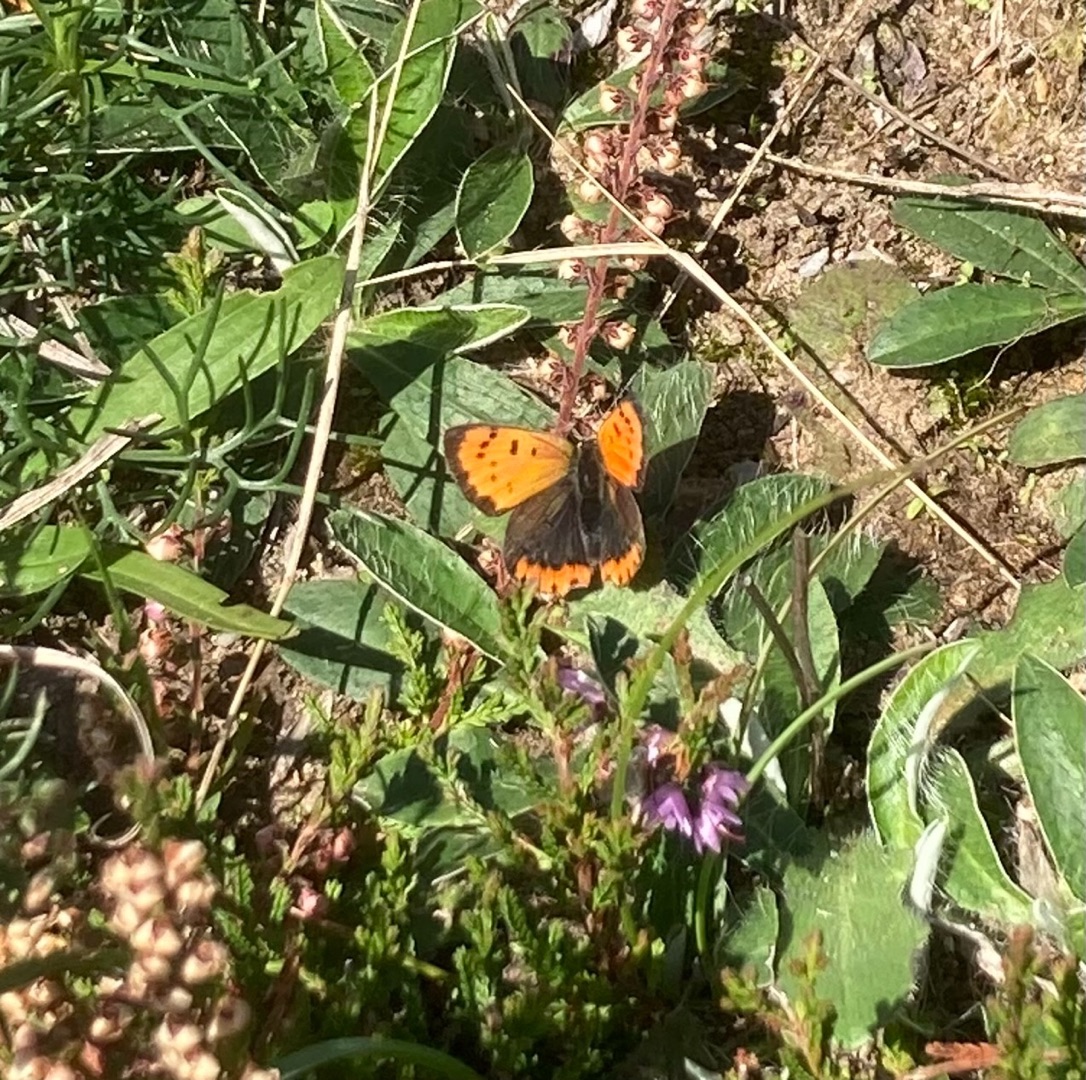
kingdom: Animalia
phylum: Arthropoda
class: Insecta
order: Lepidoptera
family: Lycaenidae
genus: Lycaena
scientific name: Lycaena phlaeas
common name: Lille ildfugl
